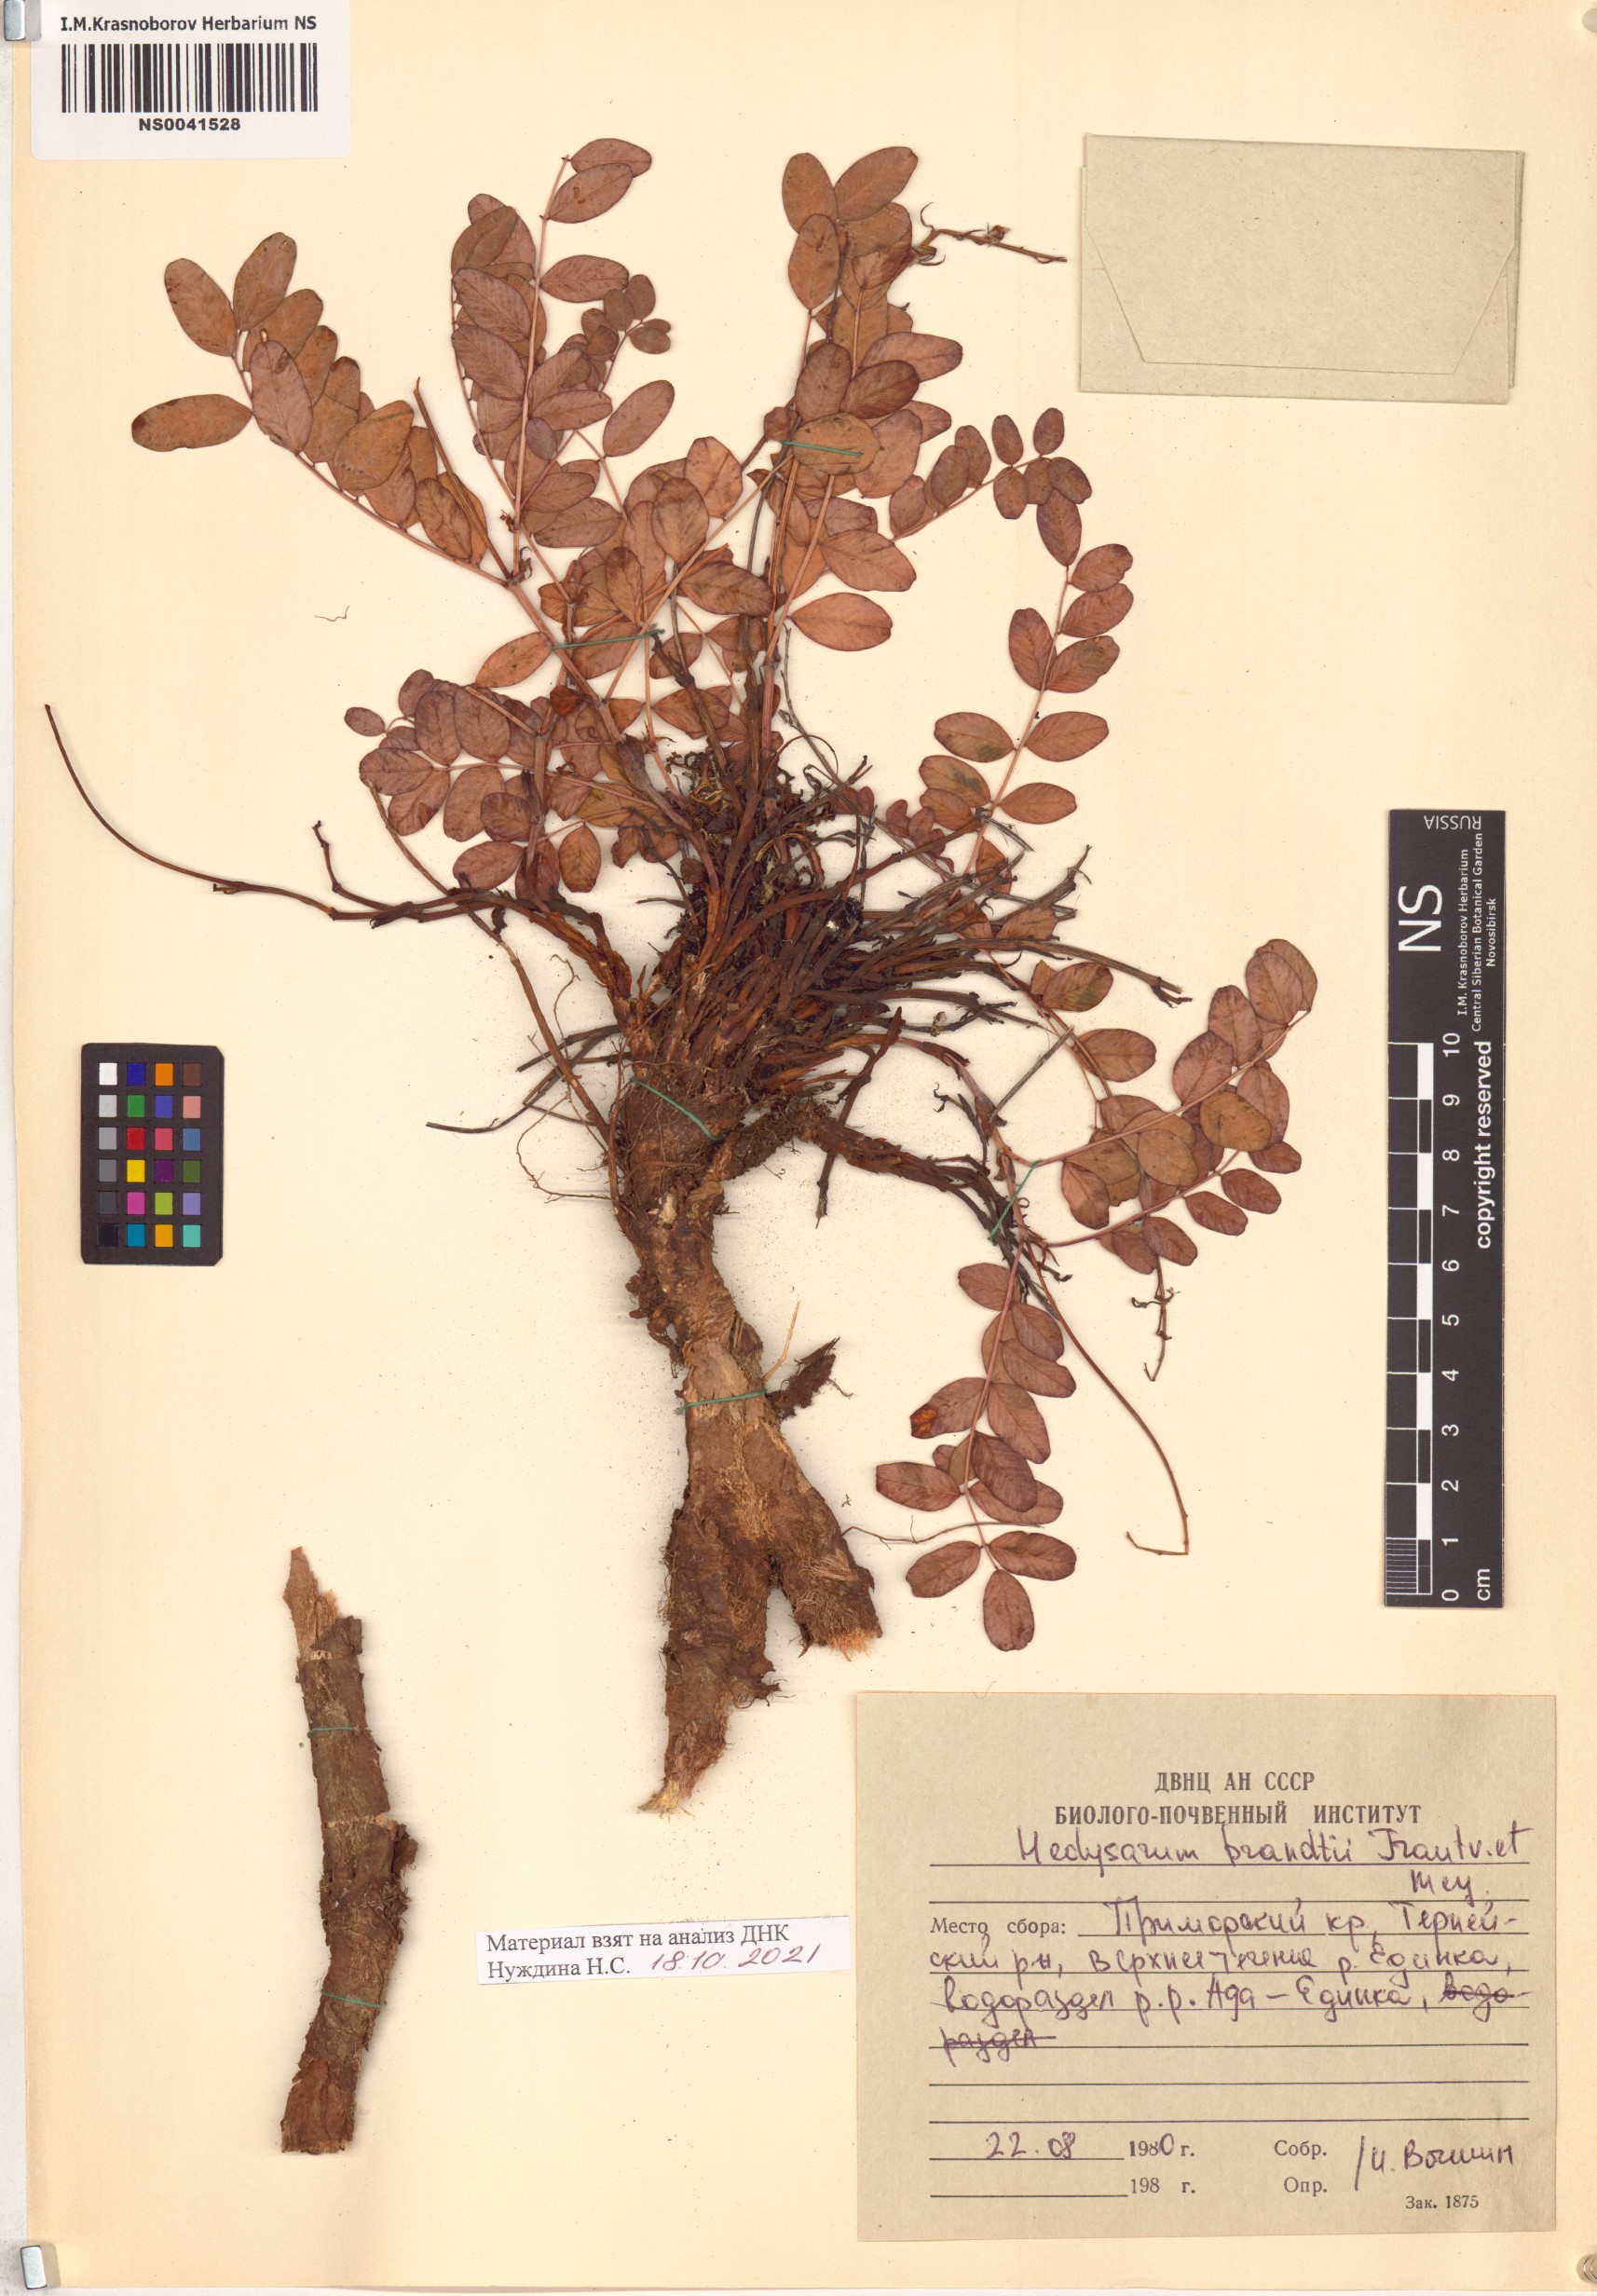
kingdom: Plantae
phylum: Tracheophyta
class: Magnoliopsida
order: Fabales
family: Fabaceae
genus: Hedysarum
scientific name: Hedysarum branthii
